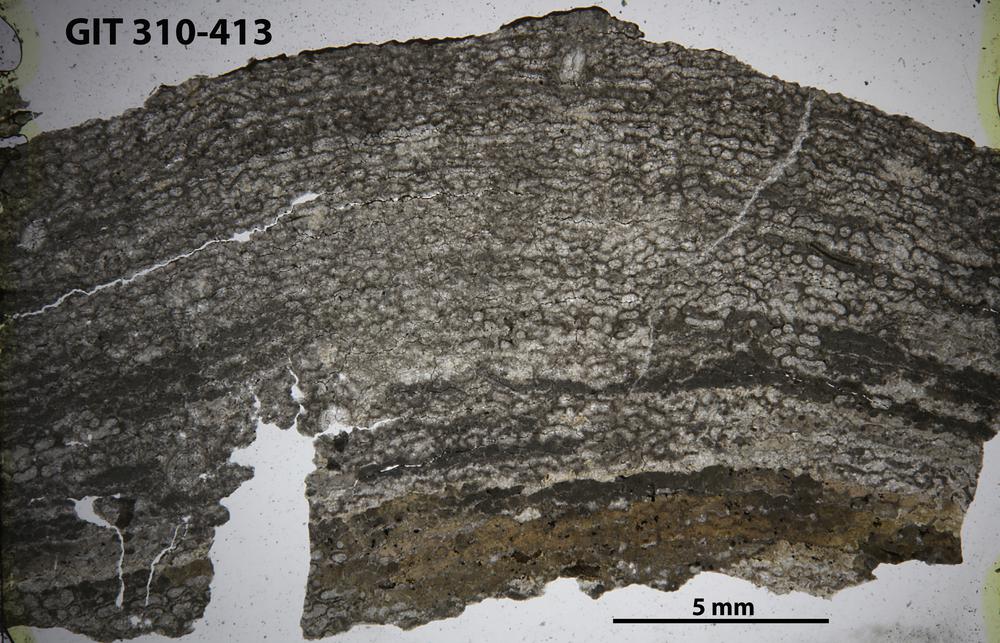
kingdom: Animalia
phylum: Porifera
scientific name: Porifera
